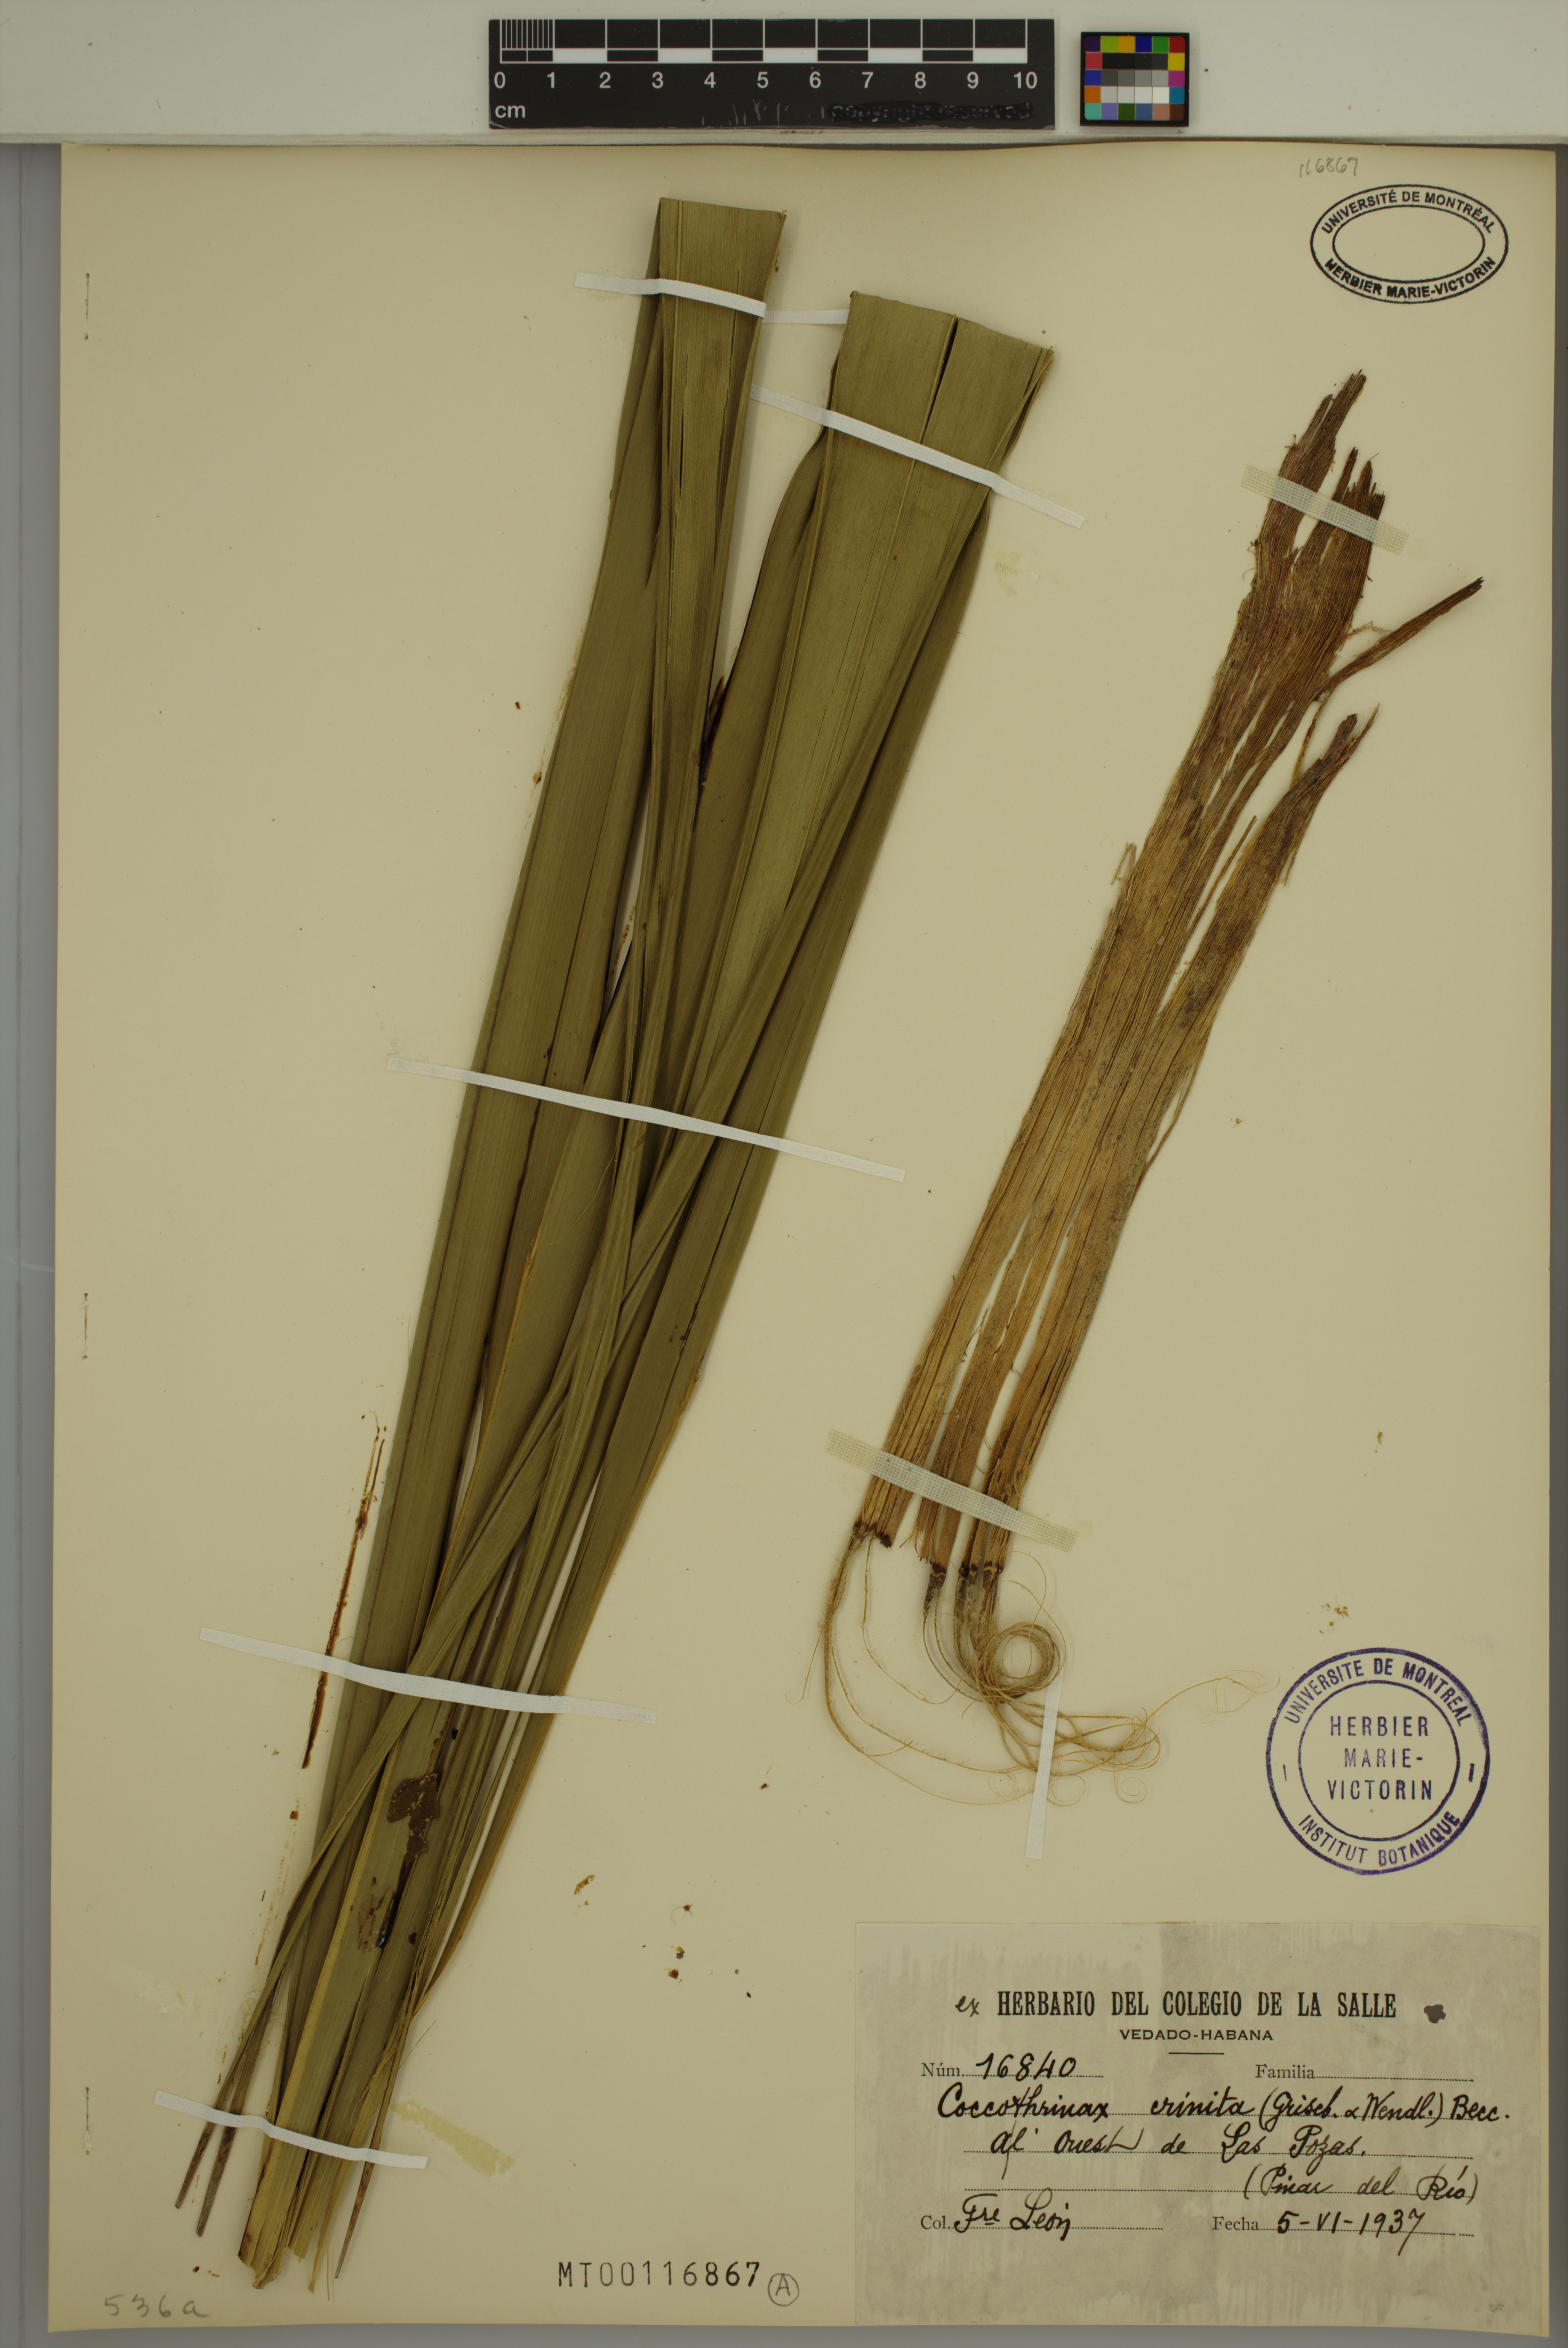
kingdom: Plantae
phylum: Tracheophyta
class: Liliopsida
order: Arecales
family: Arecaceae
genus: Coccothrinax
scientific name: Coccothrinax crinita
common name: Thatch palm
